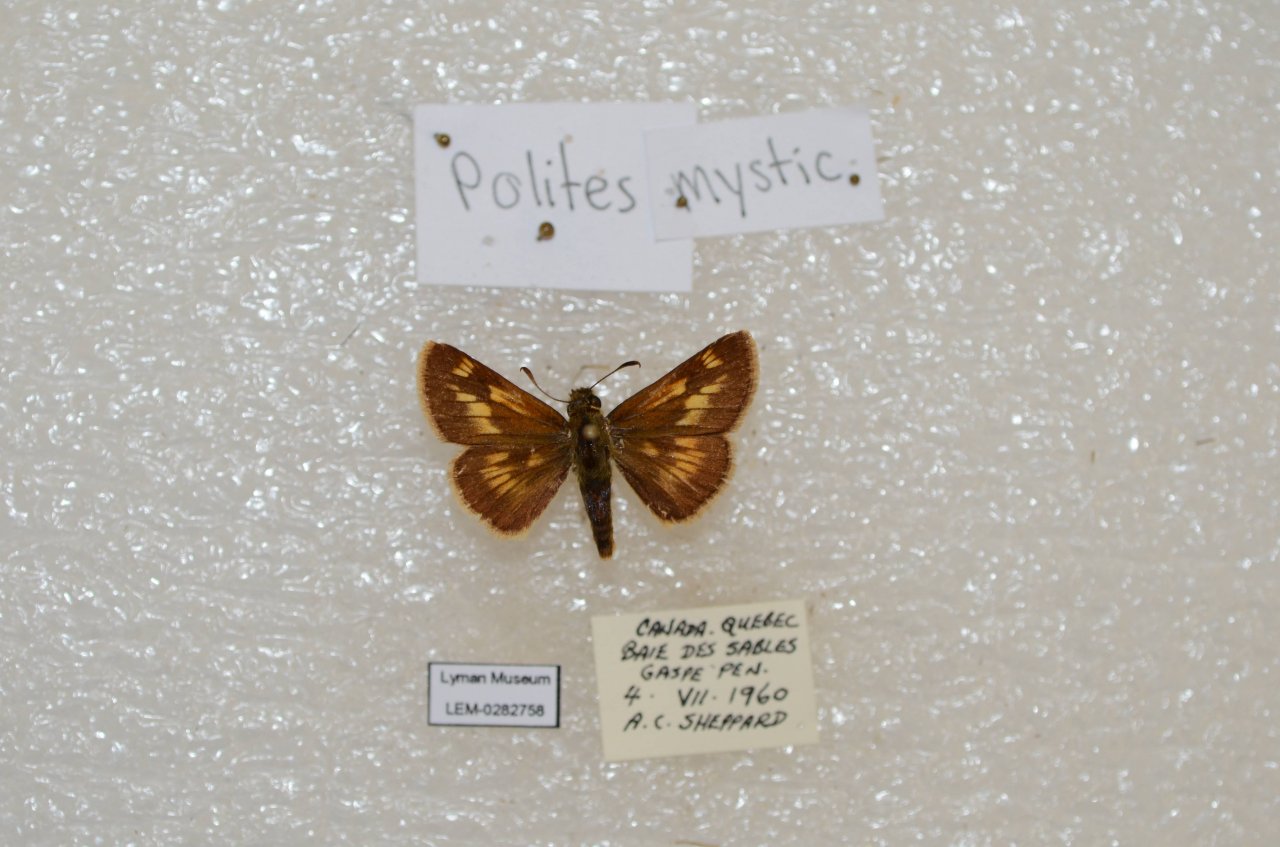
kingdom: Animalia
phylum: Arthropoda
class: Insecta
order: Lepidoptera
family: Hesperiidae
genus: Polites
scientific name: Polites
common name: Long Dash Skipper
